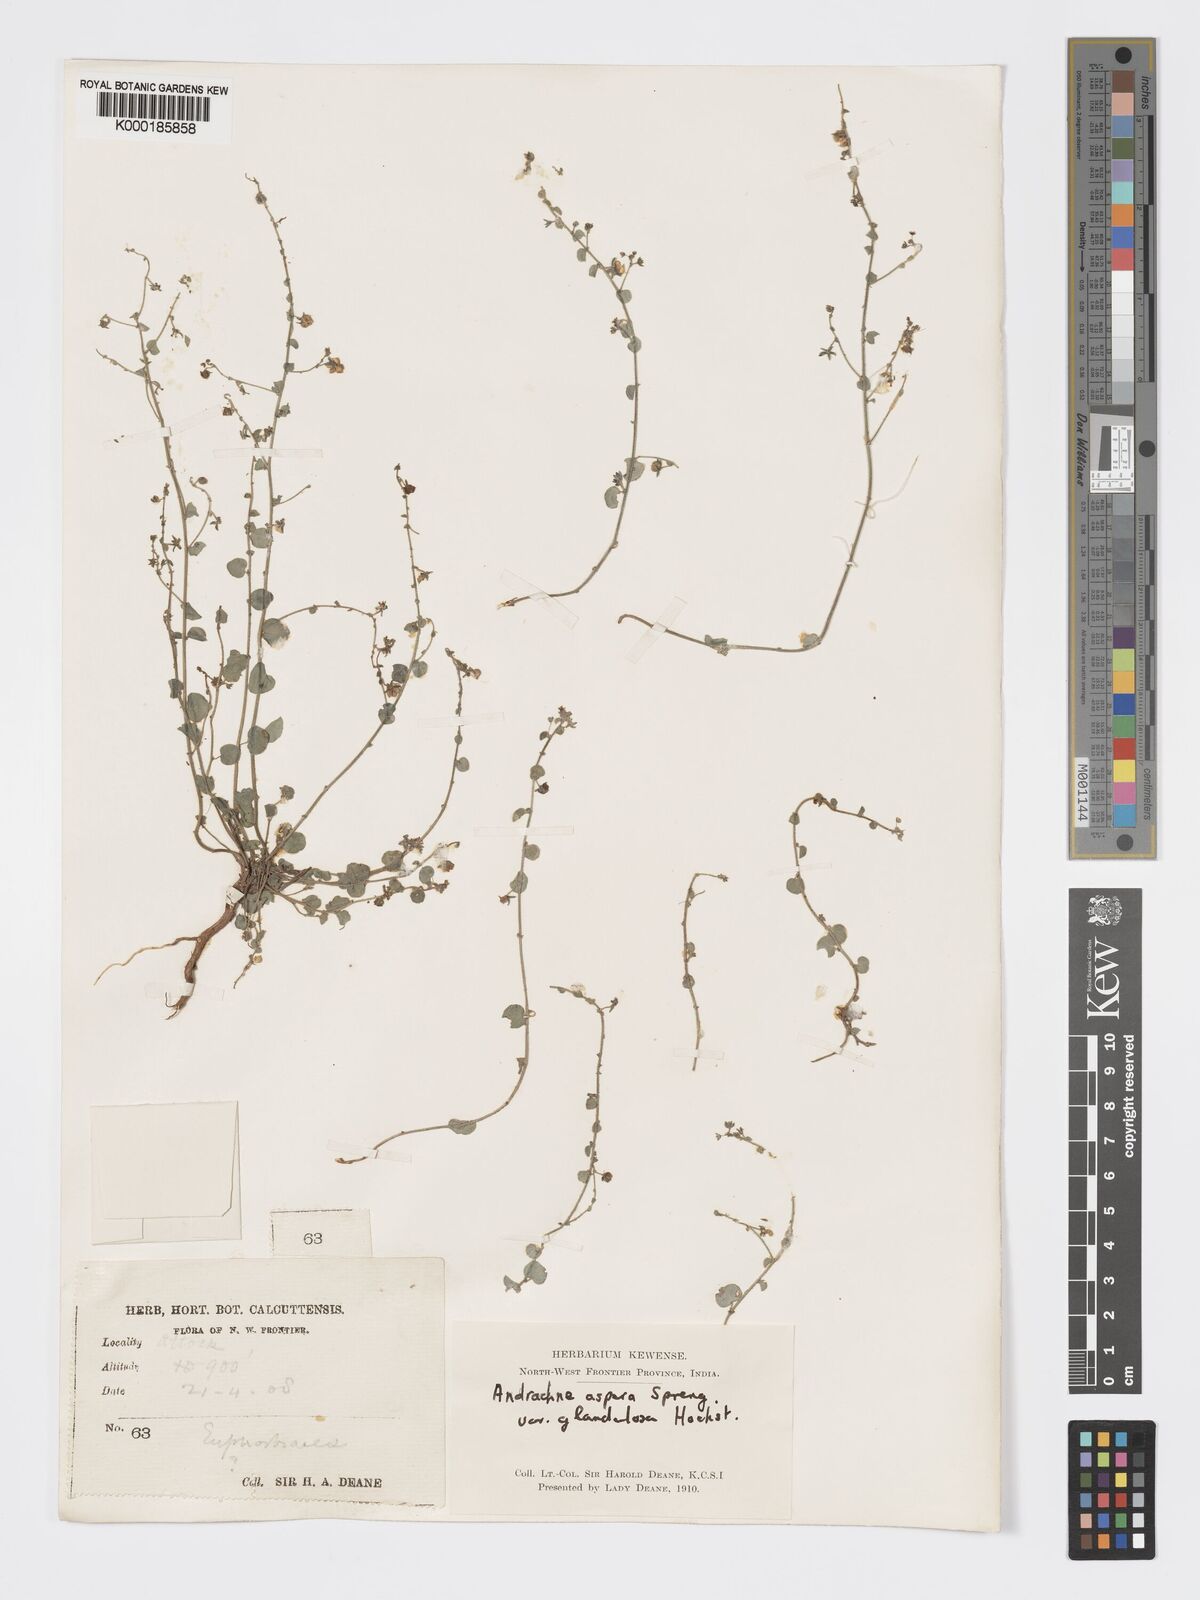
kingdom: Plantae
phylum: Tracheophyta
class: Magnoliopsida
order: Malpighiales
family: Phyllanthaceae
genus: Andrachne
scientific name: Andrachne aspera
